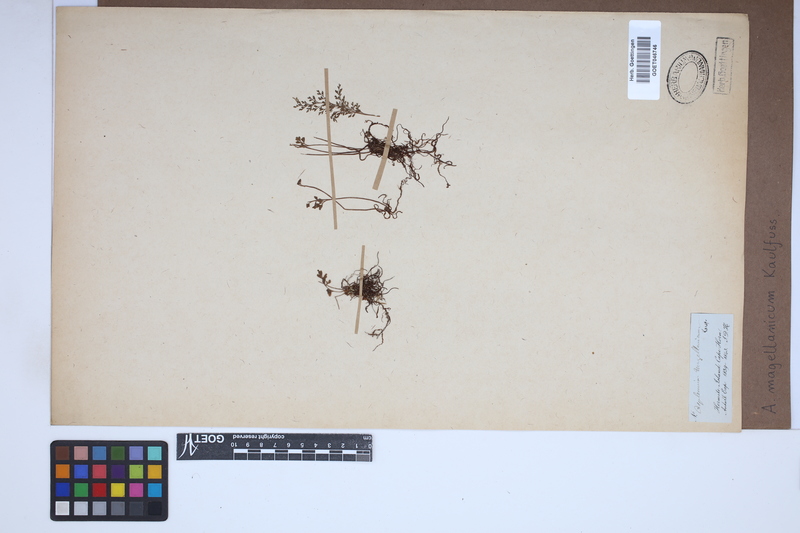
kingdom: Plantae
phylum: Tracheophyta
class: Polypodiopsida
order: Polypodiales
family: Aspleniaceae
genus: Asplenium
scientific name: Asplenium dareoides
